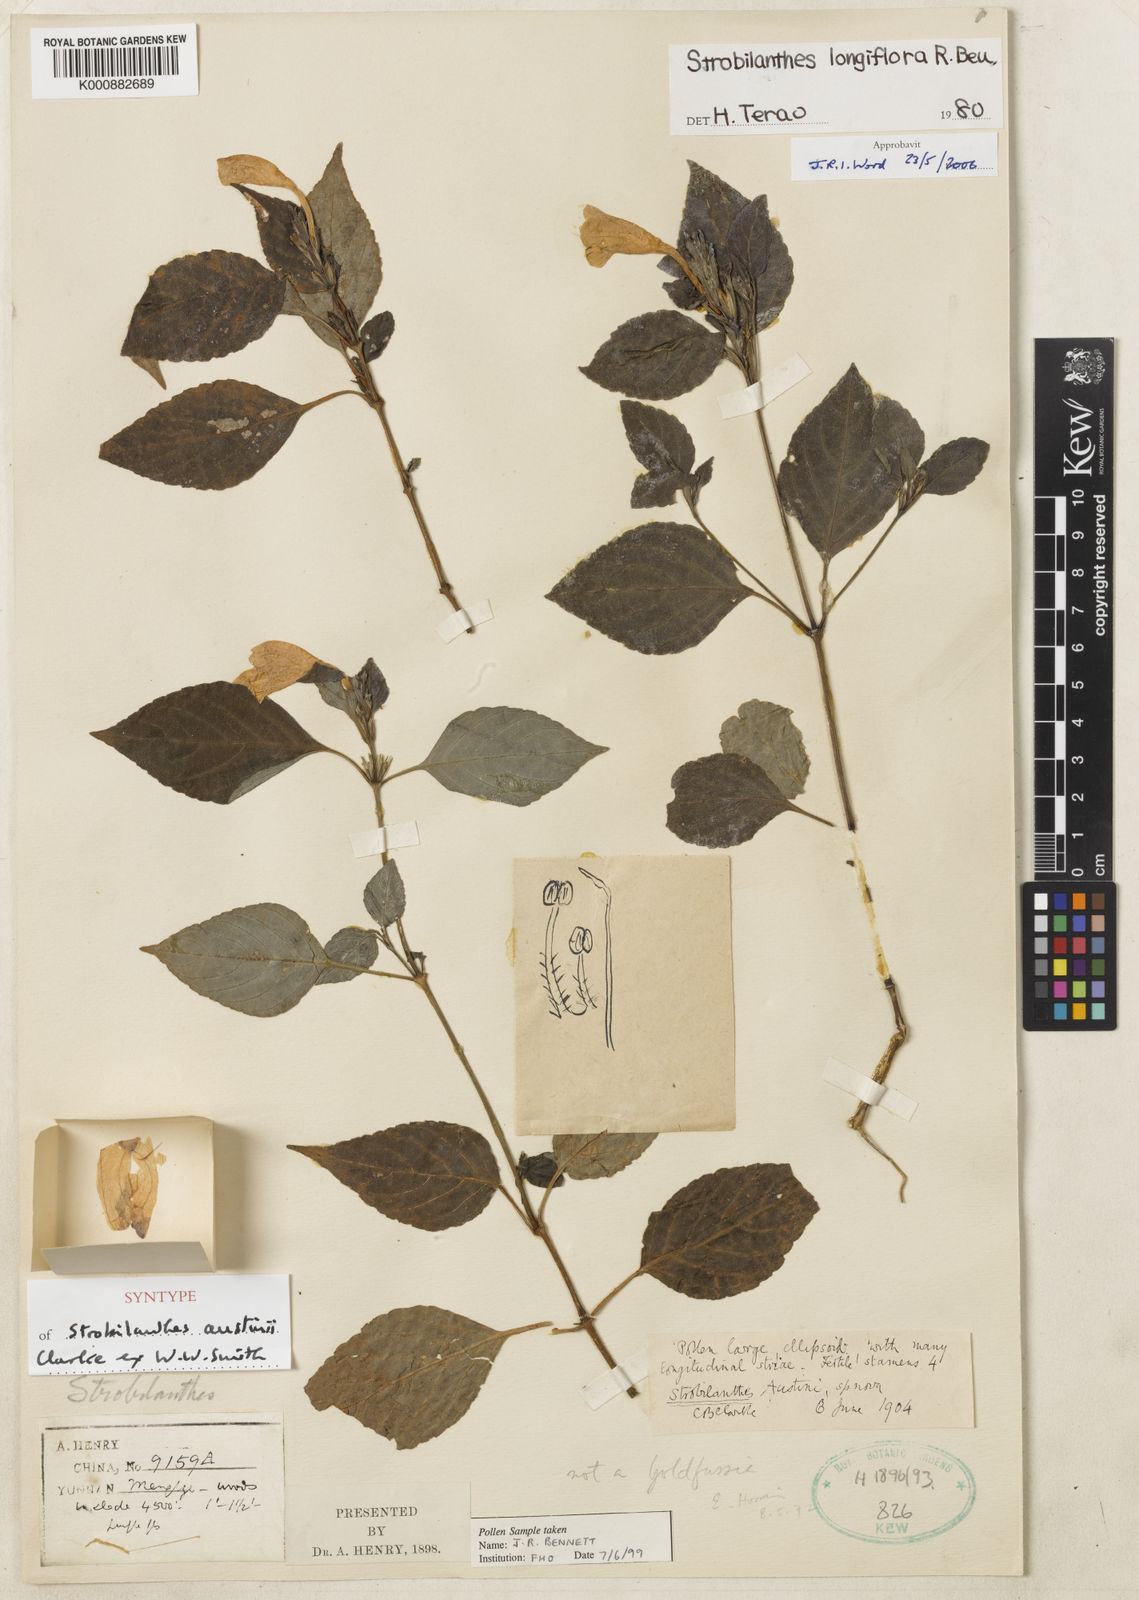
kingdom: Plantae
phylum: Tracheophyta
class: Magnoliopsida
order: Lamiales
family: Acanthaceae
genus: Strobilanthes
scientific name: Strobilanthes longiflora
